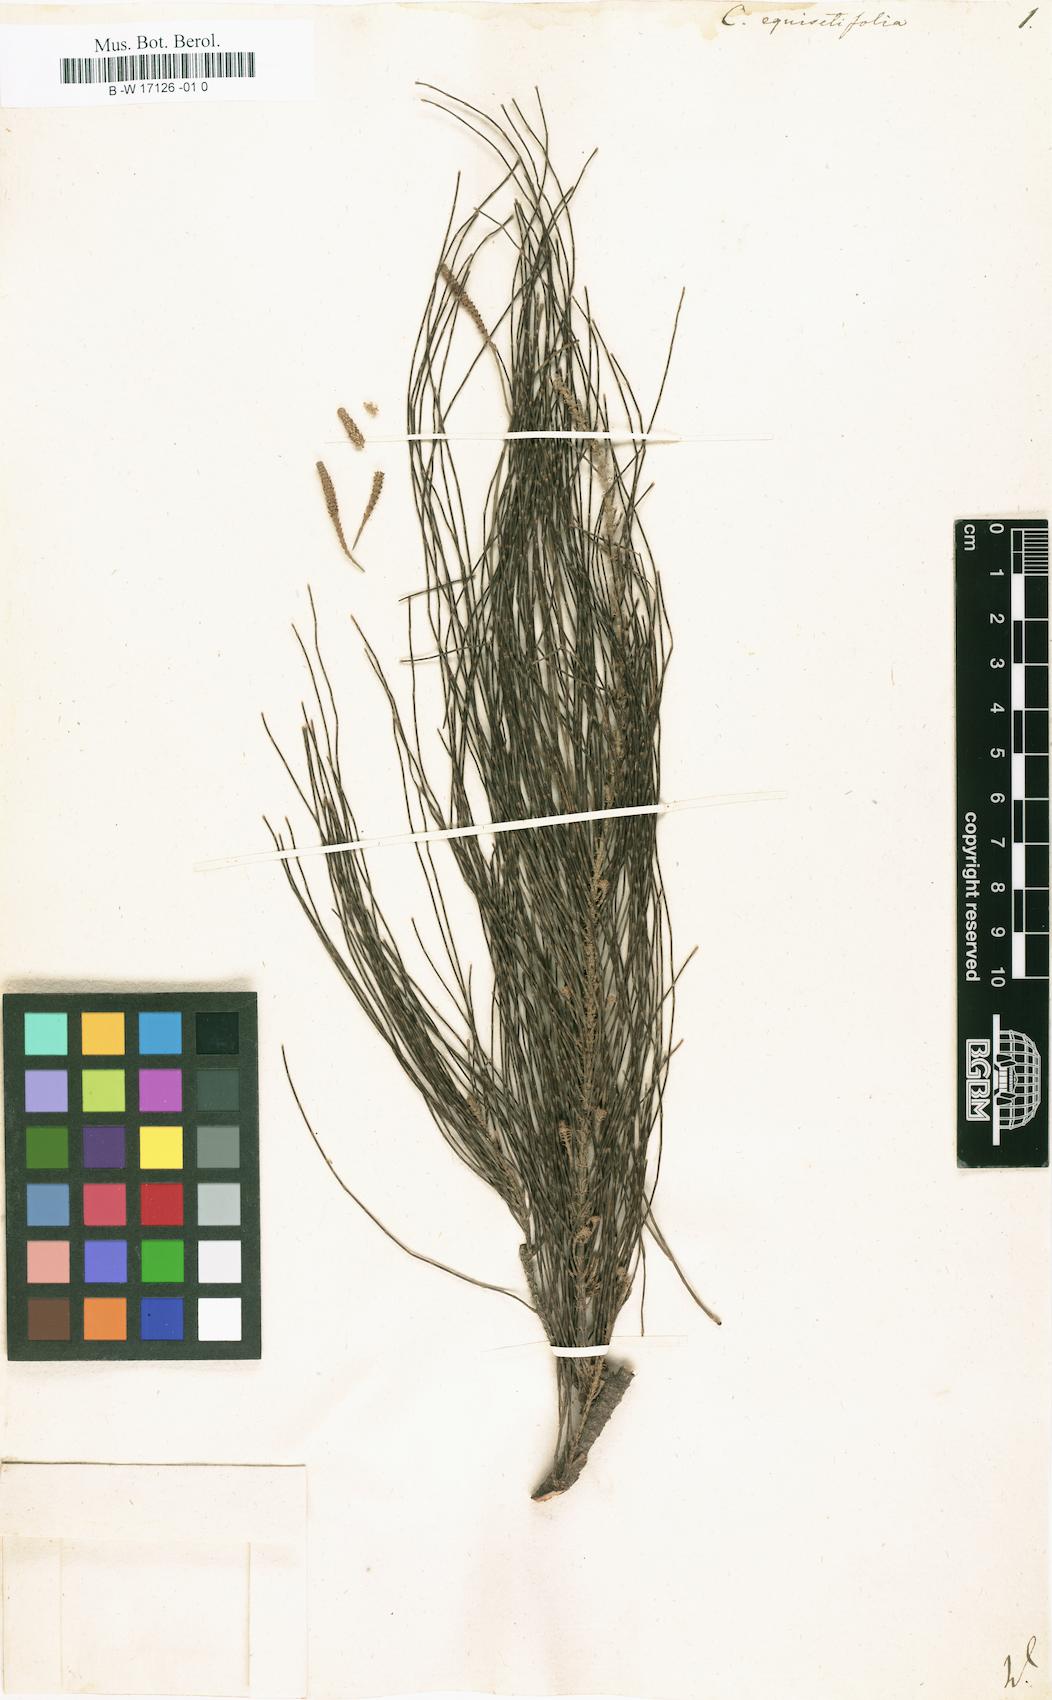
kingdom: Plantae
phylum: Tracheophyta
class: Magnoliopsida
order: Fagales
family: Casuarinaceae
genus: Casuarina
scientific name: Casuarina equisetifolia
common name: Beach sheoak
